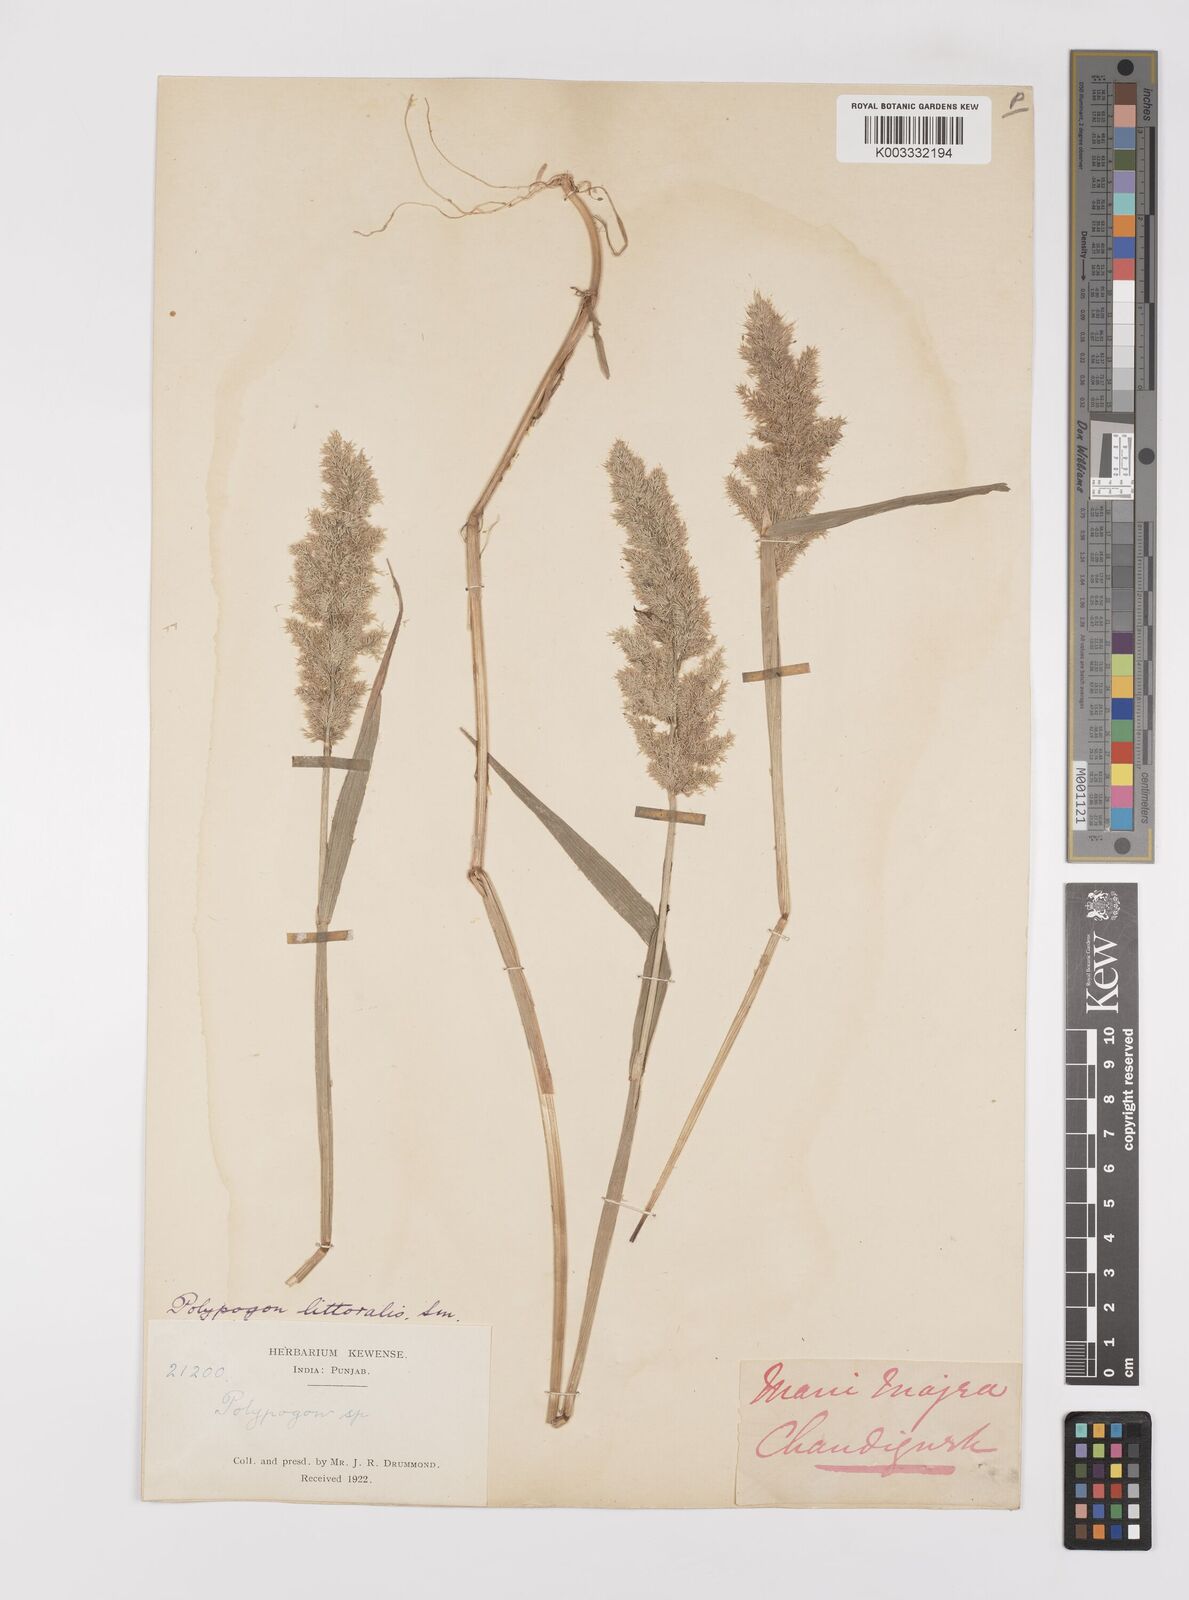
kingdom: Plantae
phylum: Tracheophyta
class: Liliopsida
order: Poales
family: Poaceae
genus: Polypogon
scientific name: Polypogon fugax
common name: Asia minor bluegrass
